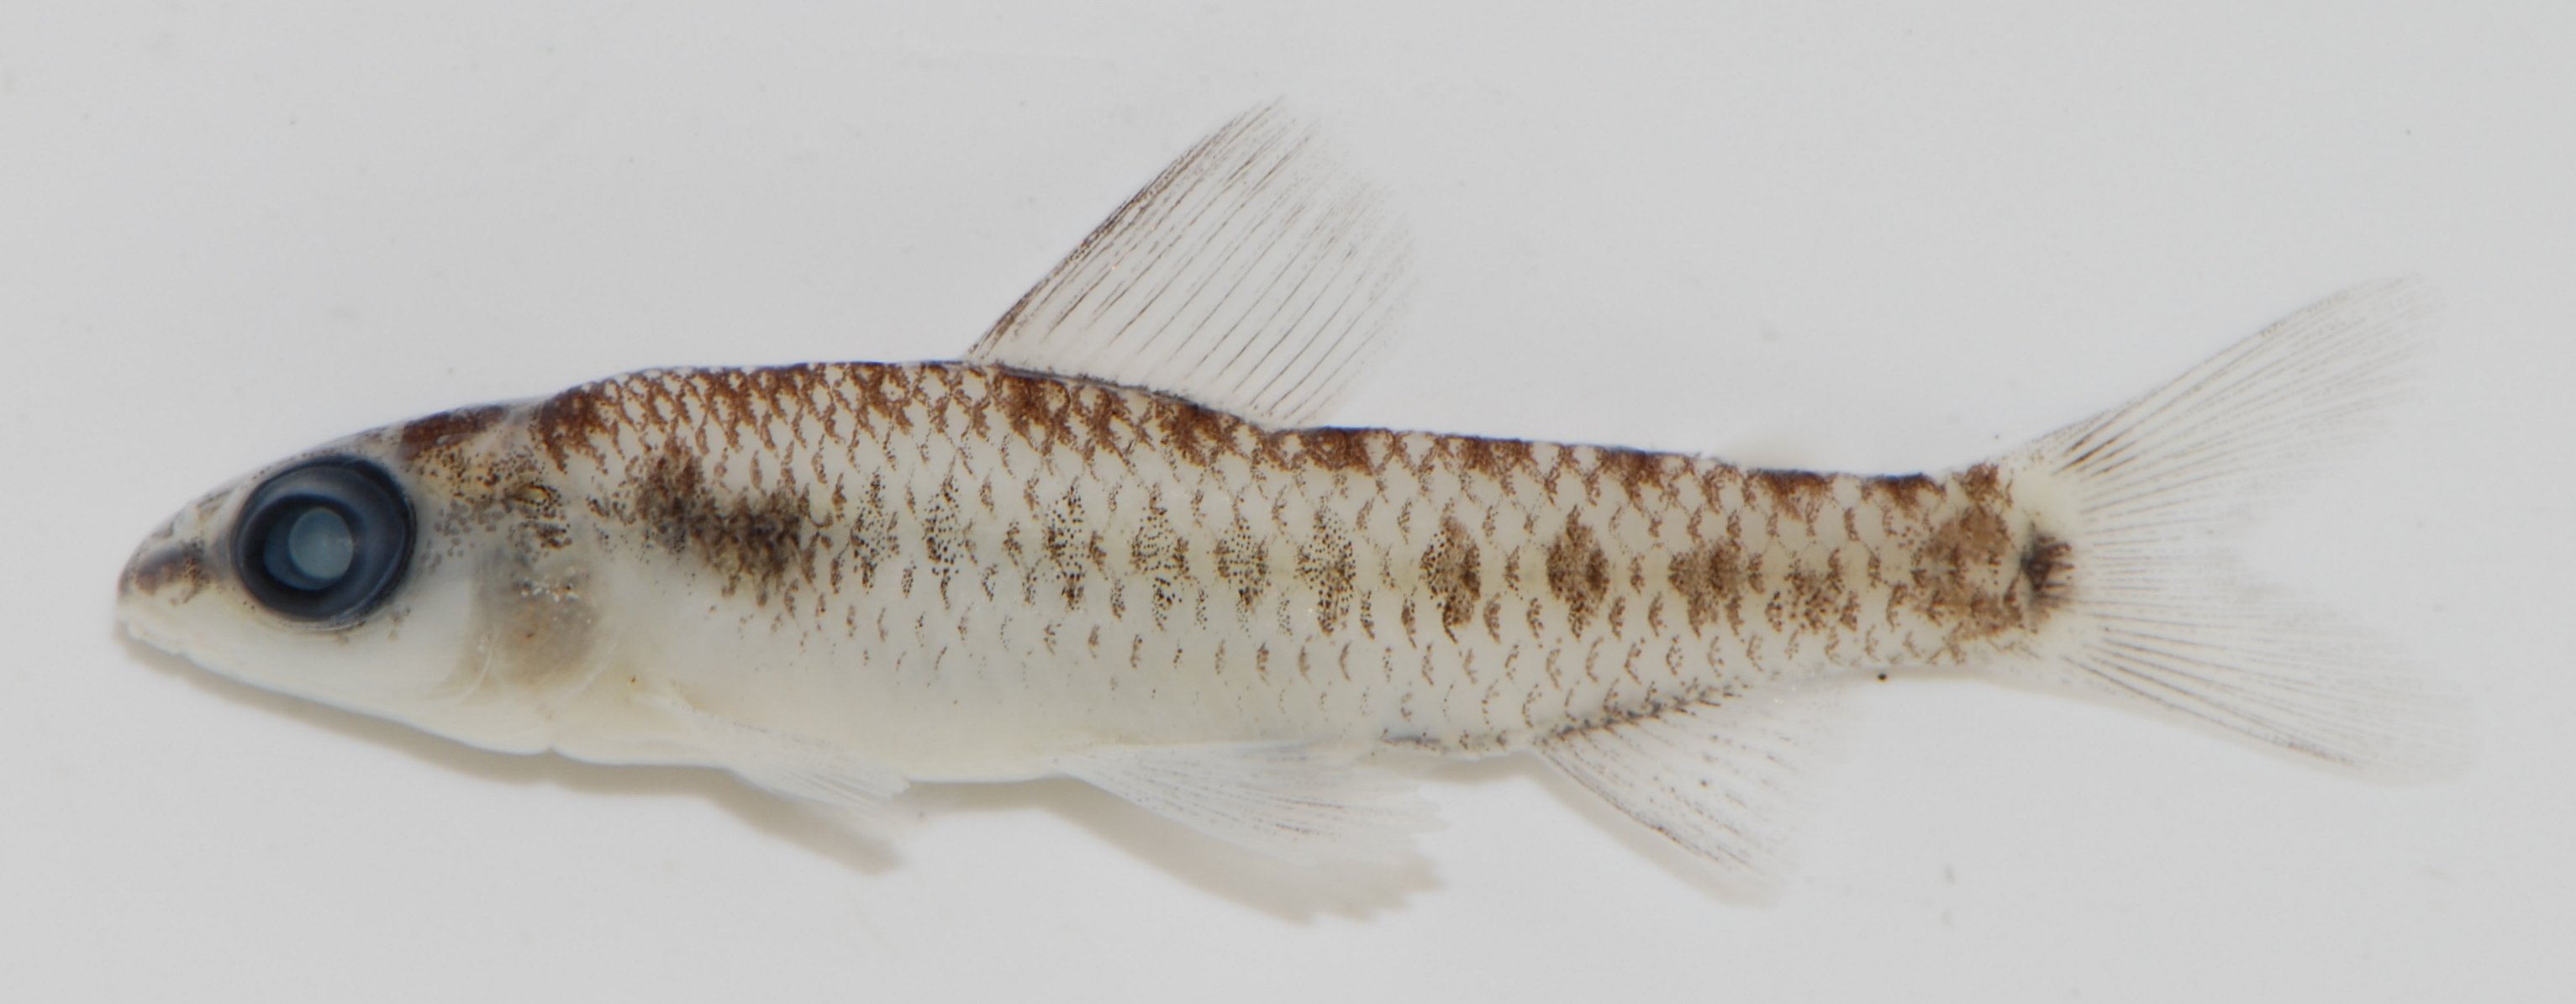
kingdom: Animalia
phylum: Chordata
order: Characiformes
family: Distichodontidae
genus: Neolebias
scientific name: Neolebias
